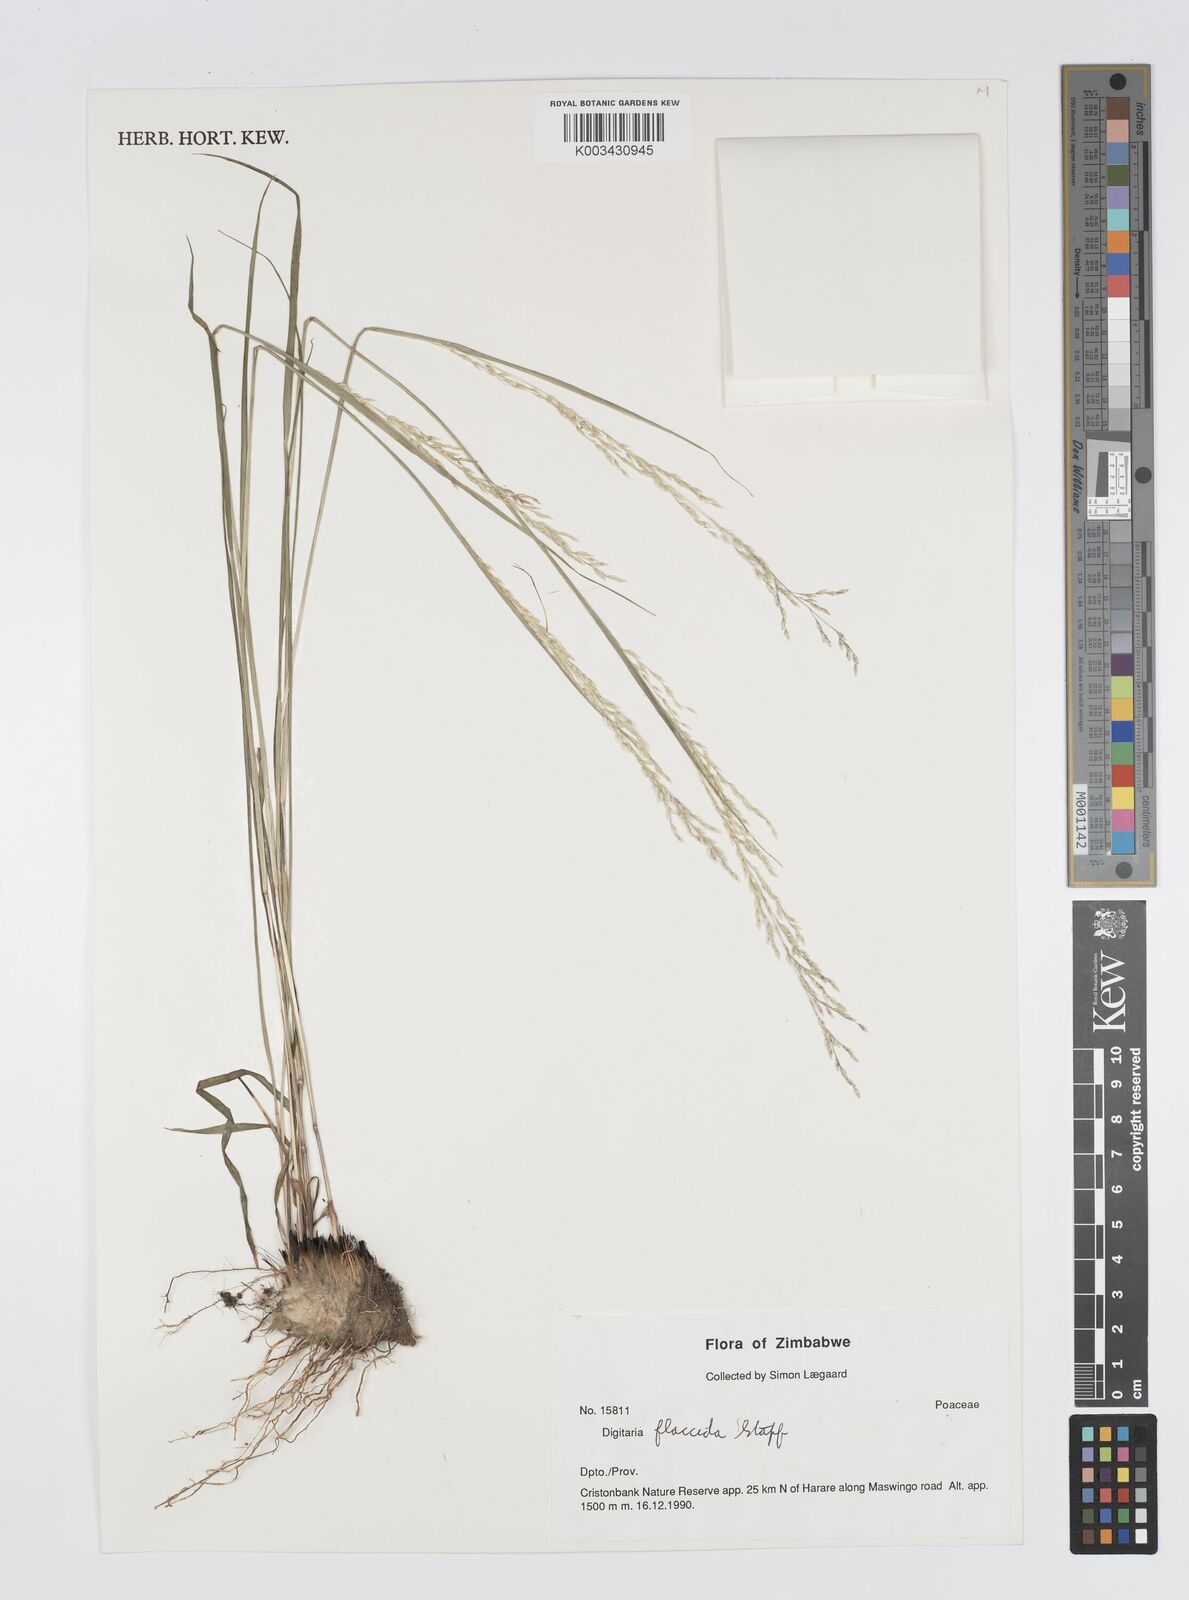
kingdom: Plantae
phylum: Tracheophyta
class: Liliopsida
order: Poales
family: Poaceae
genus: Digitaria
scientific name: Digitaria flaccida
